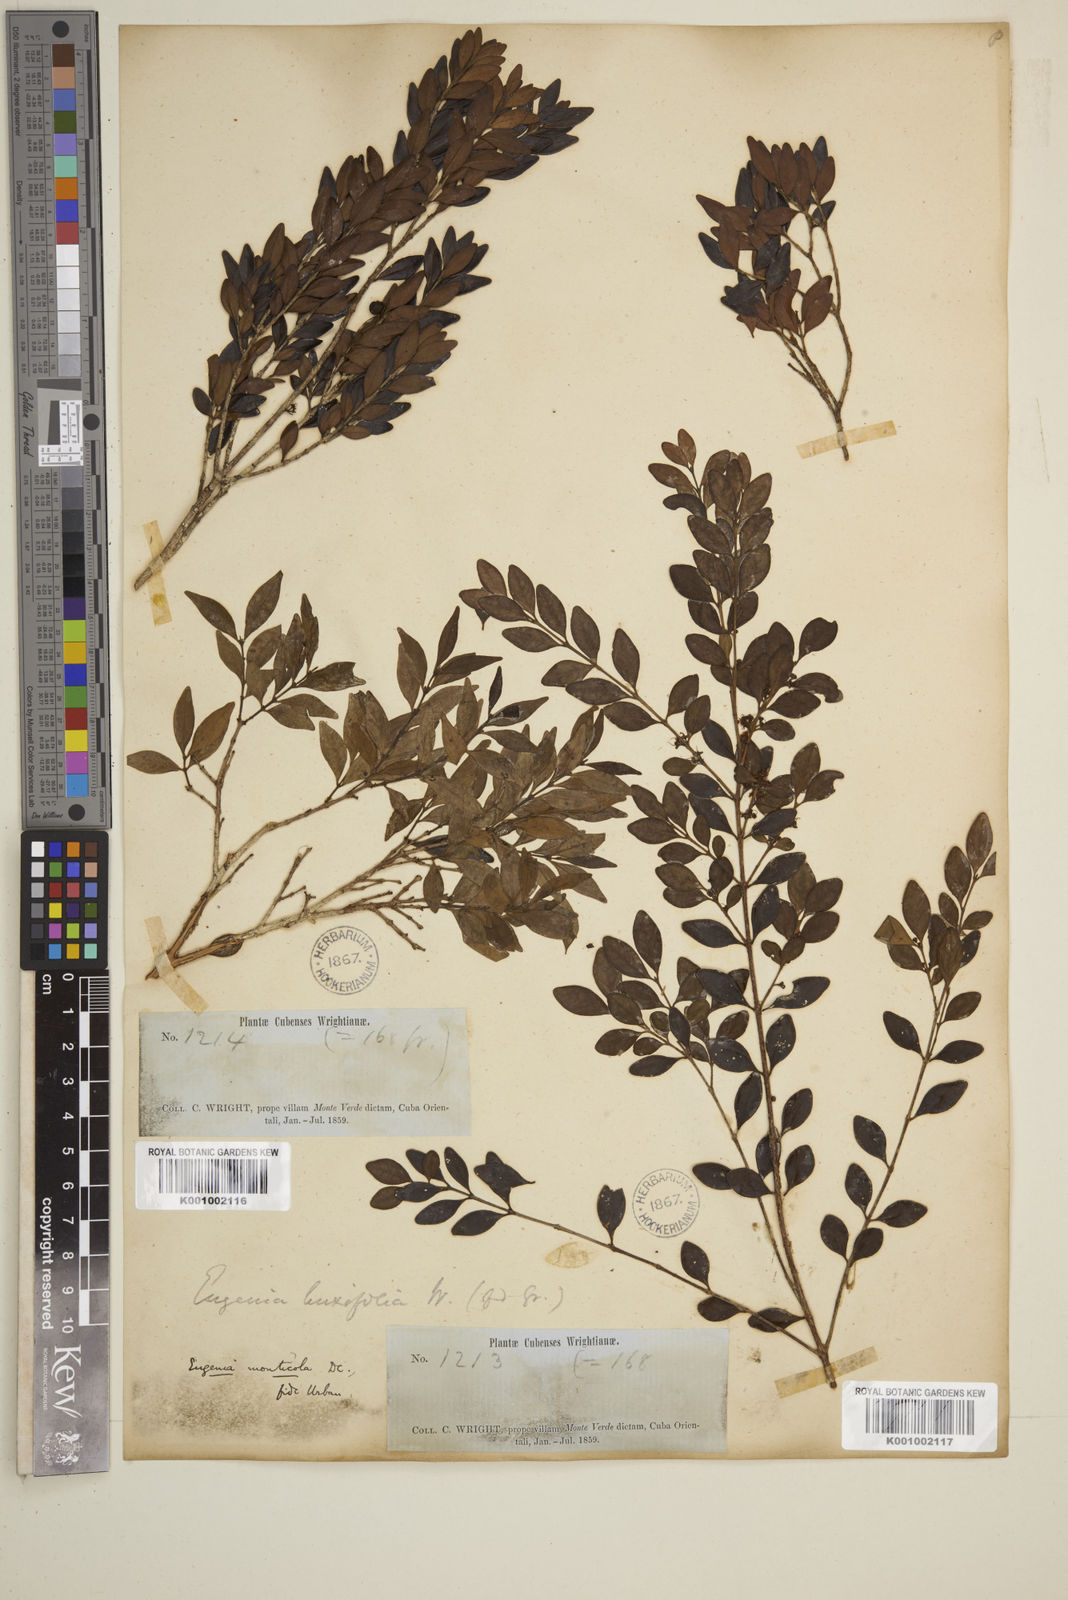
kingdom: Plantae
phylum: Tracheophyta
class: Magnoliopsida
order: Myrtales
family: Myrtaceae
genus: Eugenia
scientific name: Eugenia monticola
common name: Birds berry
